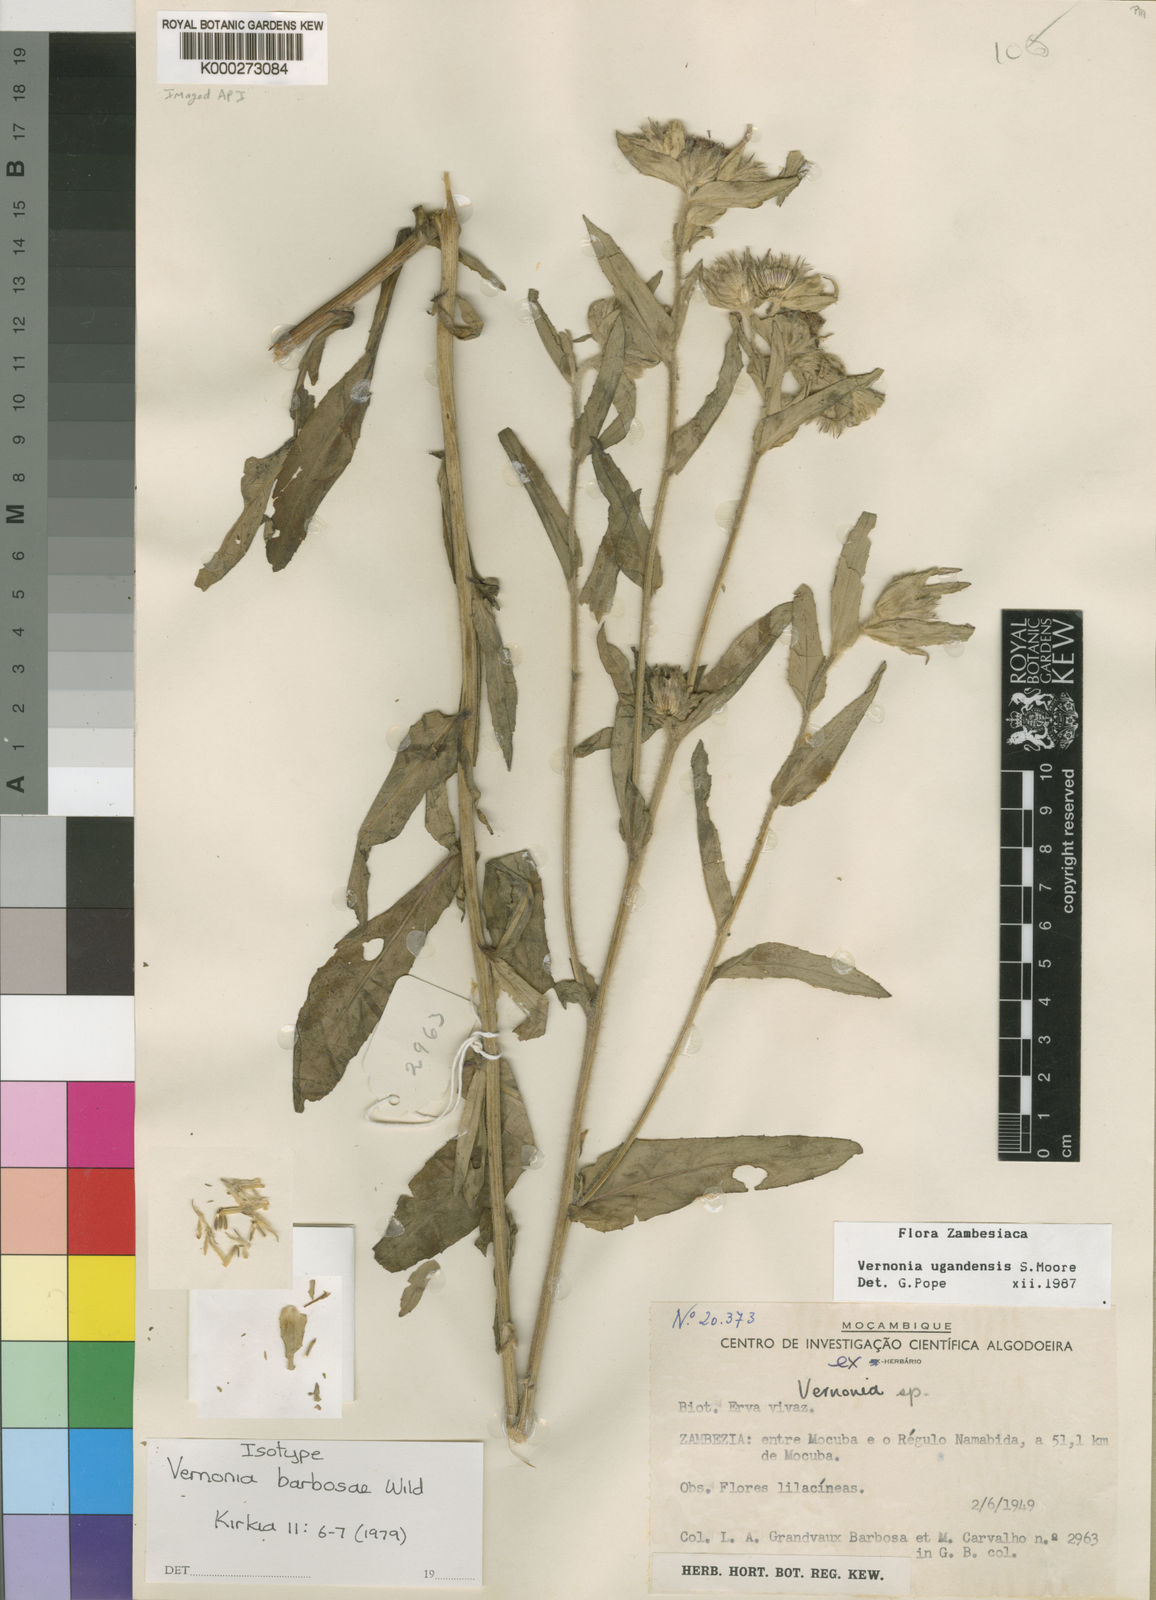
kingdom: Plantae
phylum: Tracheophyta
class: Magnoliopsida
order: Asterales
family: Asteraceae
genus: Vernoniastrum
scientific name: Vernoniastrum ugandense
